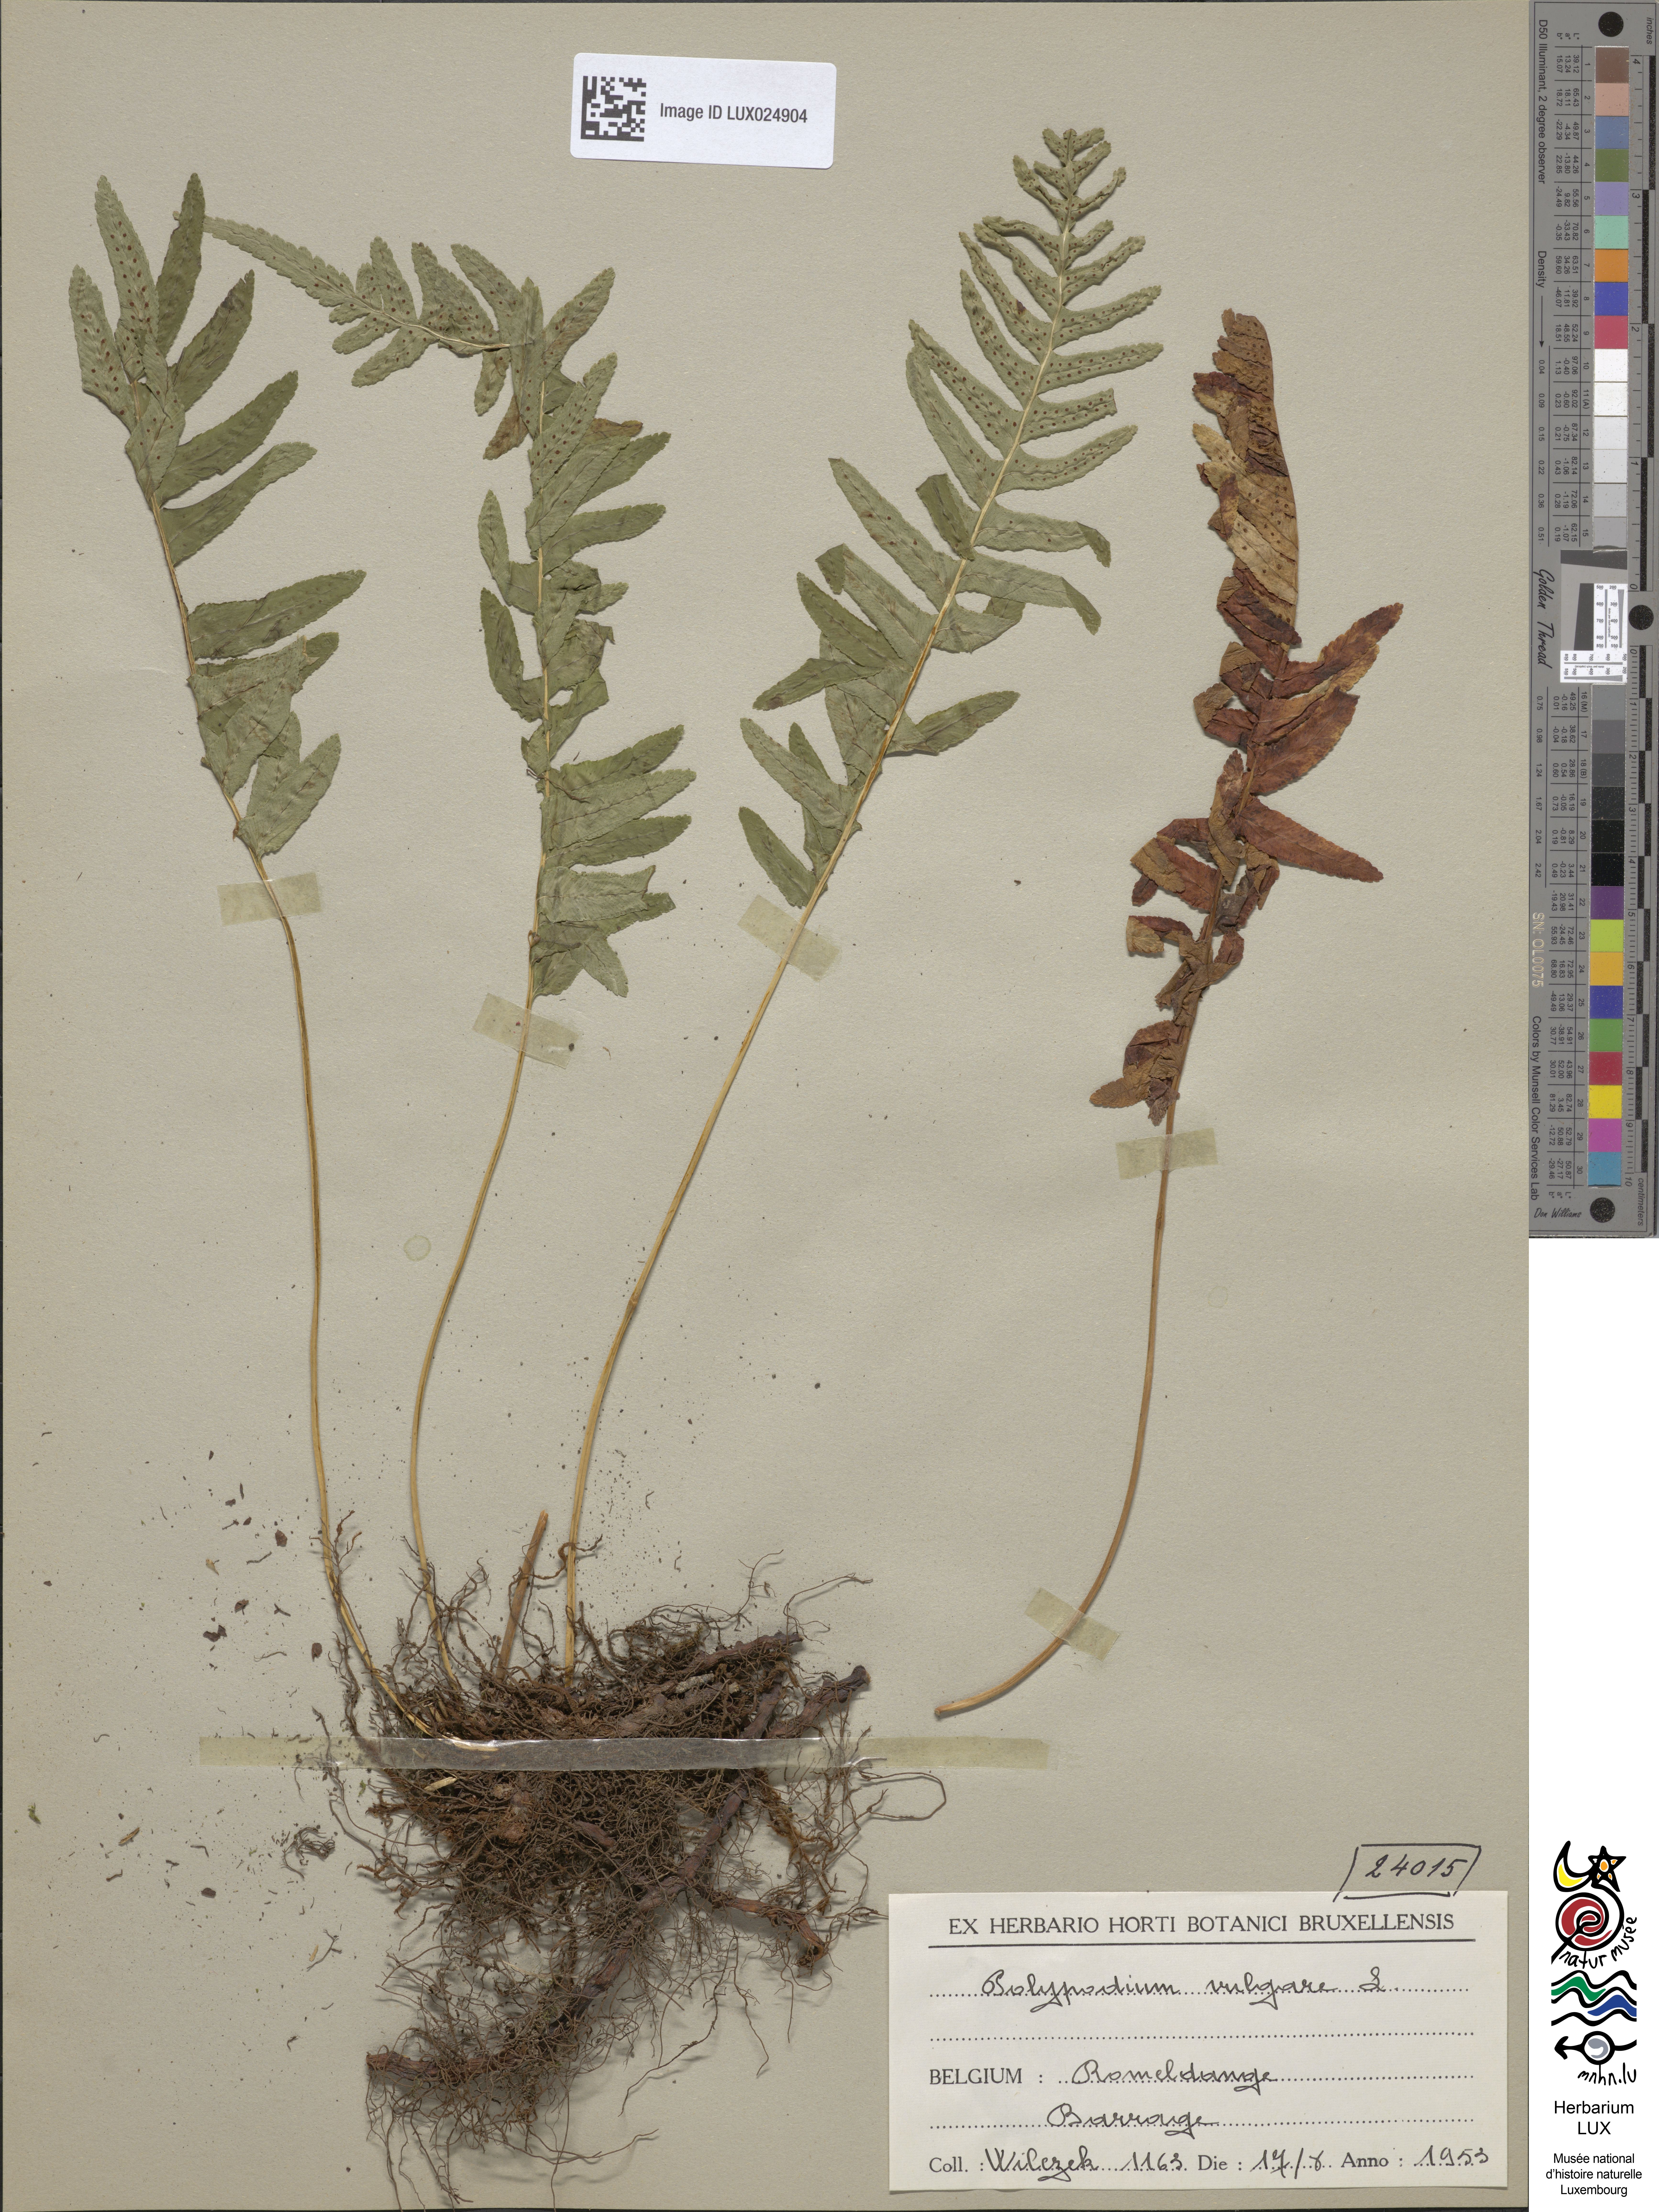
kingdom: Plantae
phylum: Tracheophyta
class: Polypodiopsida
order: Polypodiales
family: Polypodiaceae
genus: Polypodium
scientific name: Polypodium vulgare
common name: Common polypody
